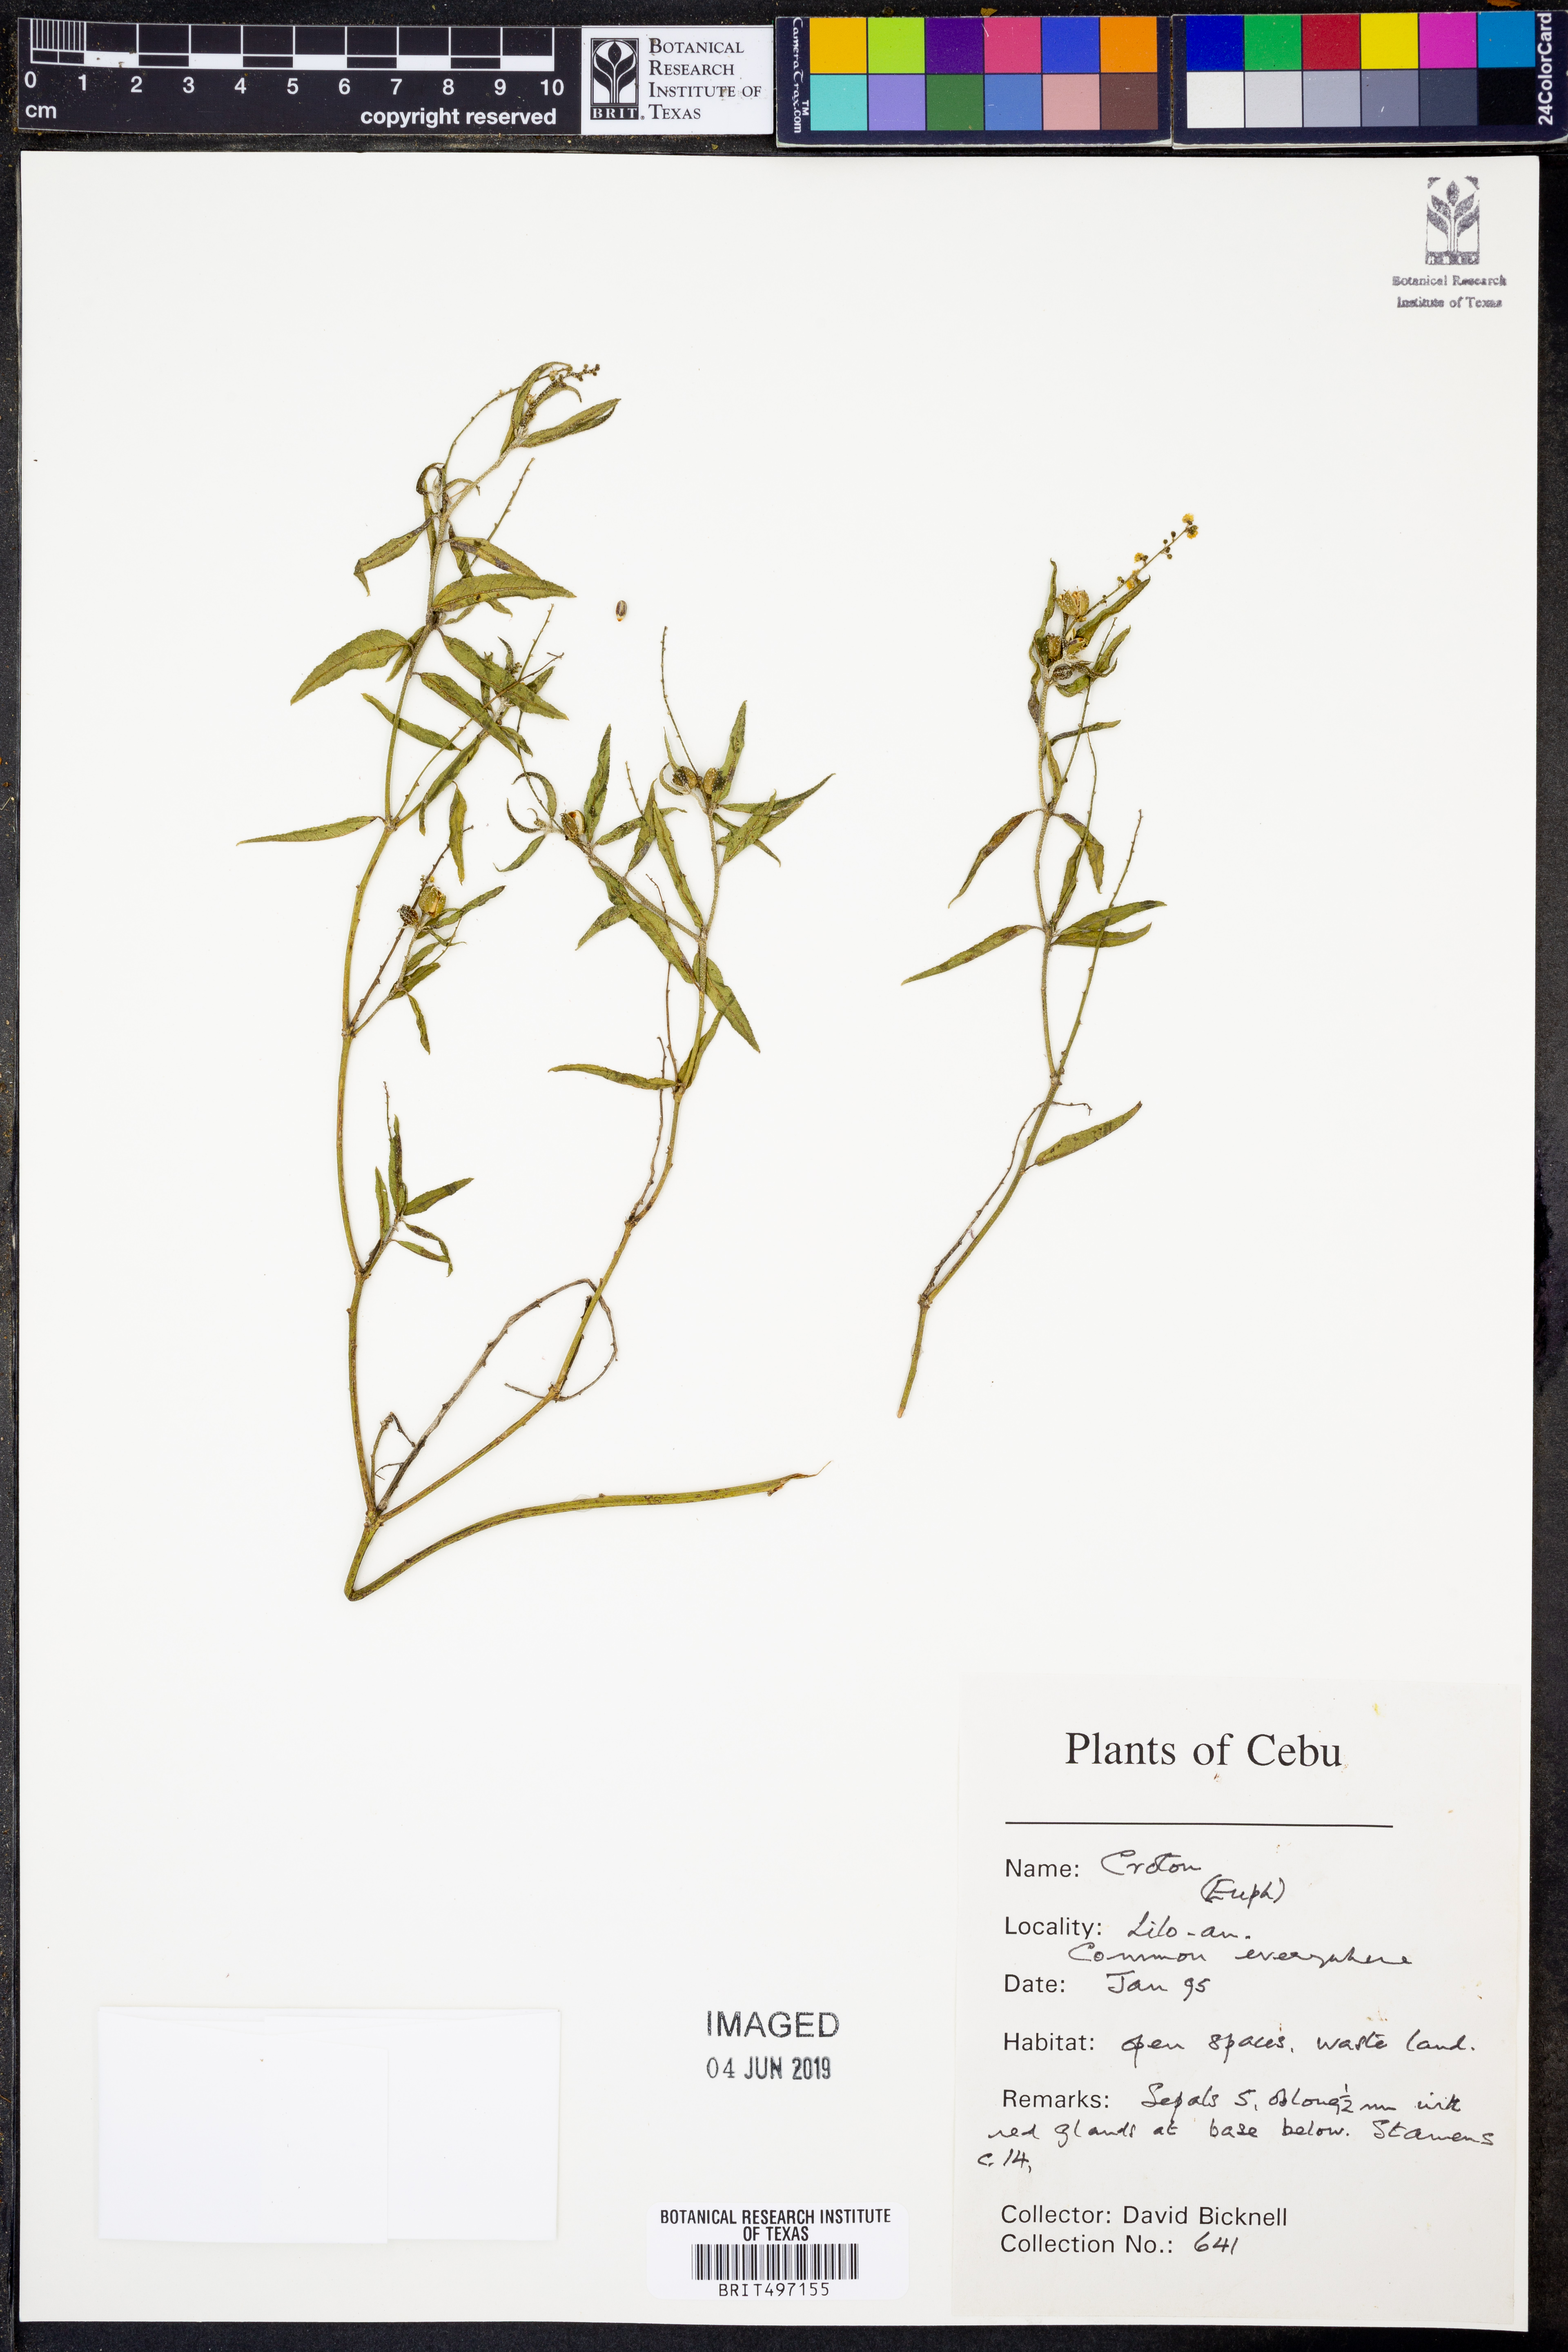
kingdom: Plantae
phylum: Tracheophyta
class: Magnoliopsida
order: Malpighiales
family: Euphorbiaceae
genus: Croton
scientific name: Croton
